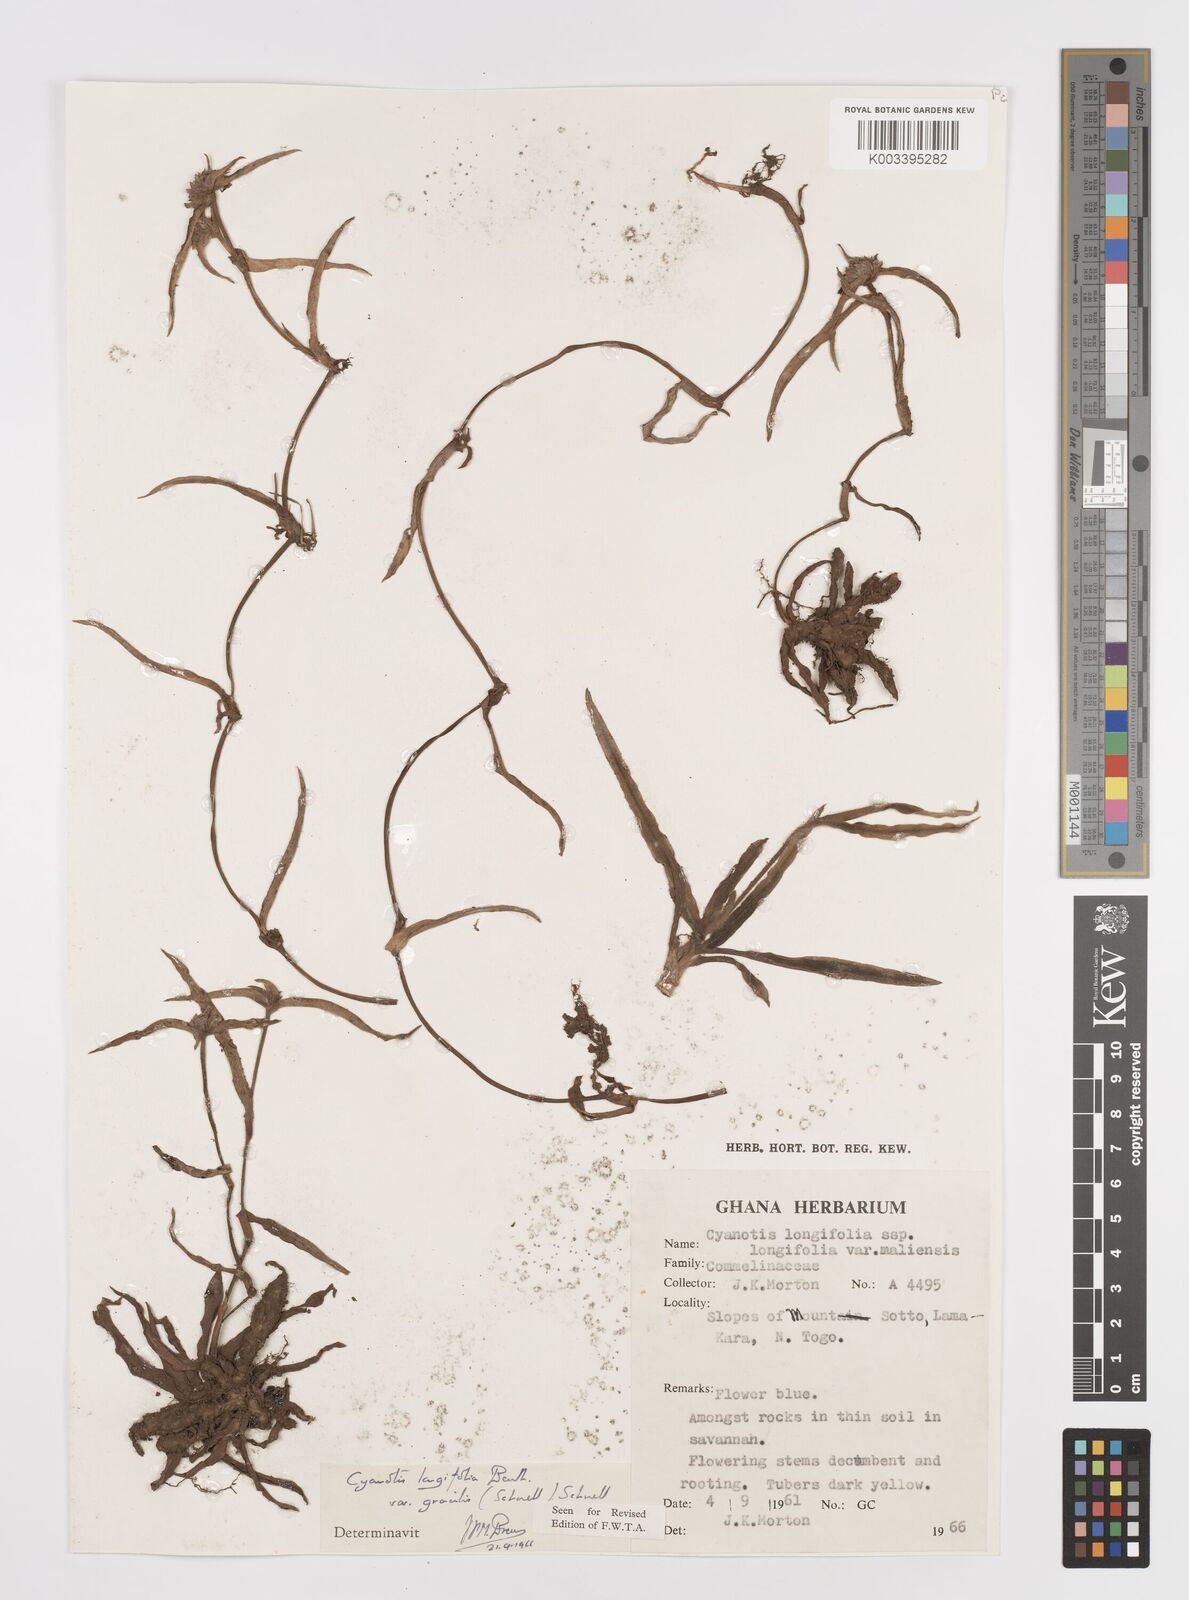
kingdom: Plantae
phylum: Tracheophyta
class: Liliopsida
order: Commelinales
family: Commelinaceae
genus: Cyanotis
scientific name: Cyanotis longifolia
